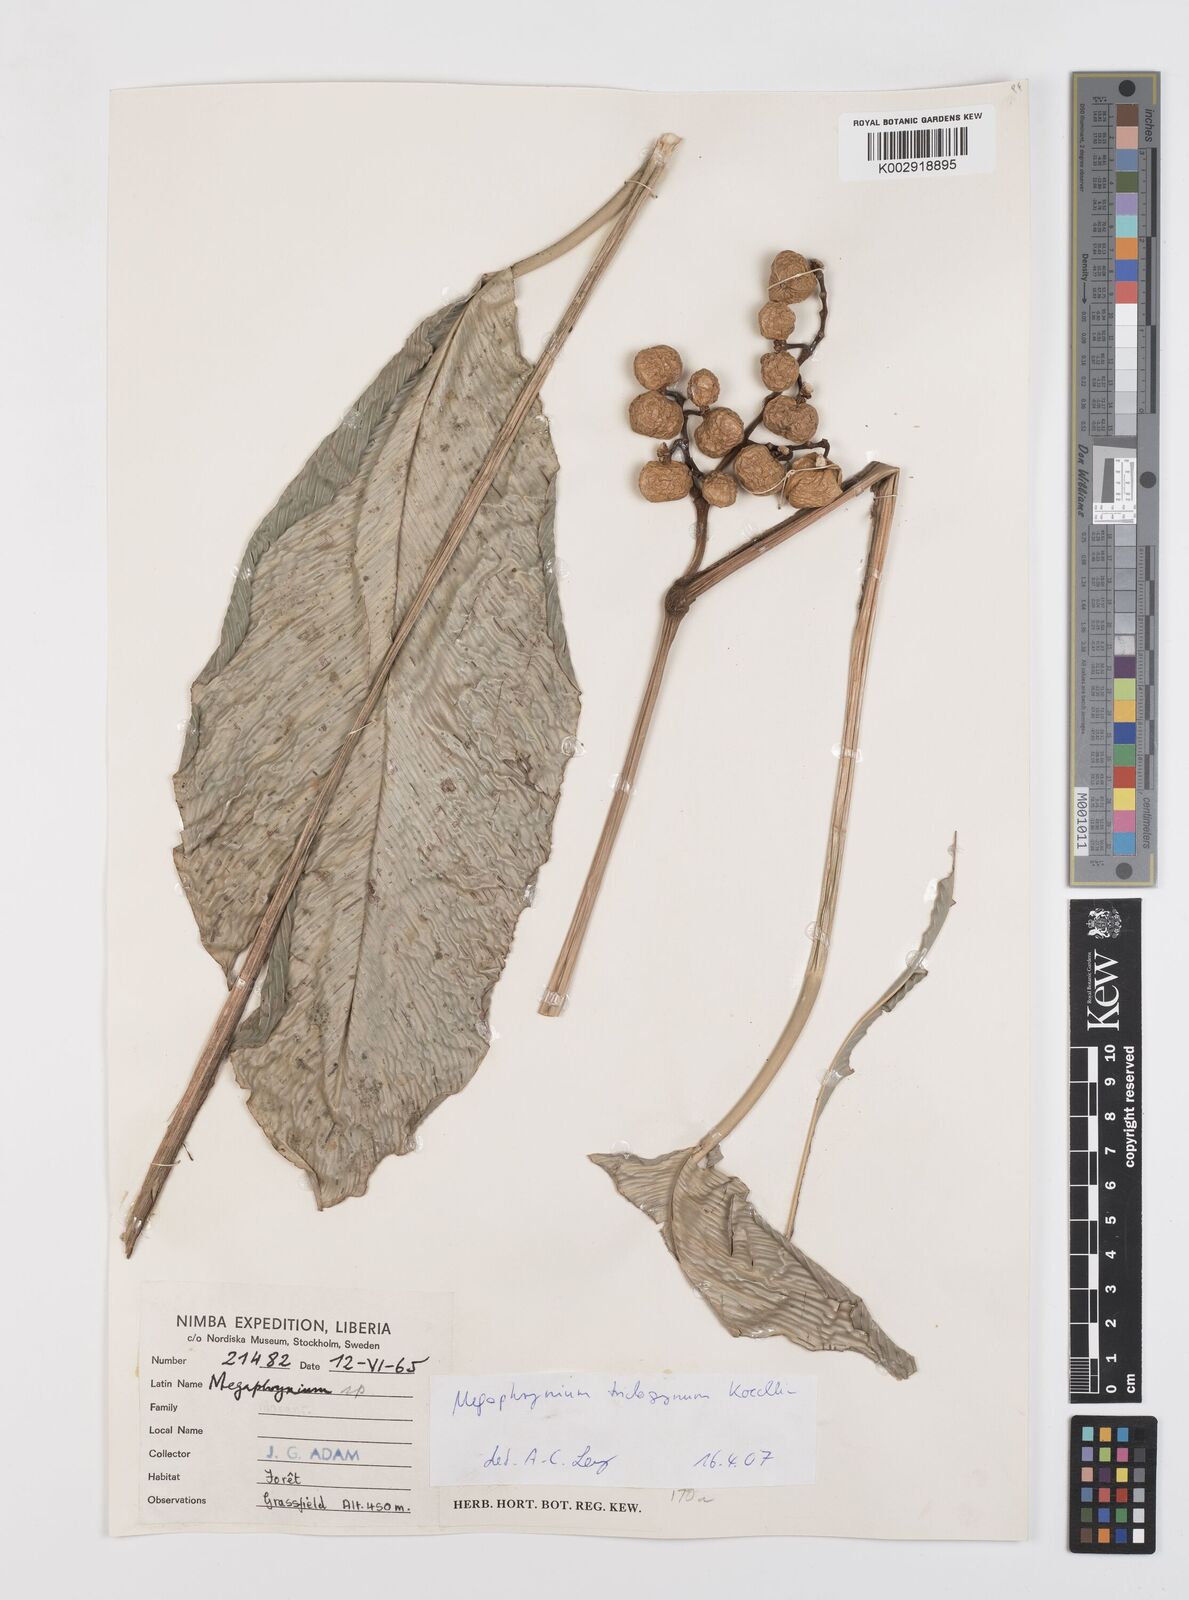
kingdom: Plantae
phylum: Tracheophyta
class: Liliopsida
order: Zingiberales
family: Marantaceae
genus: Megaphrynium
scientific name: Megaphrynium trichogynum
